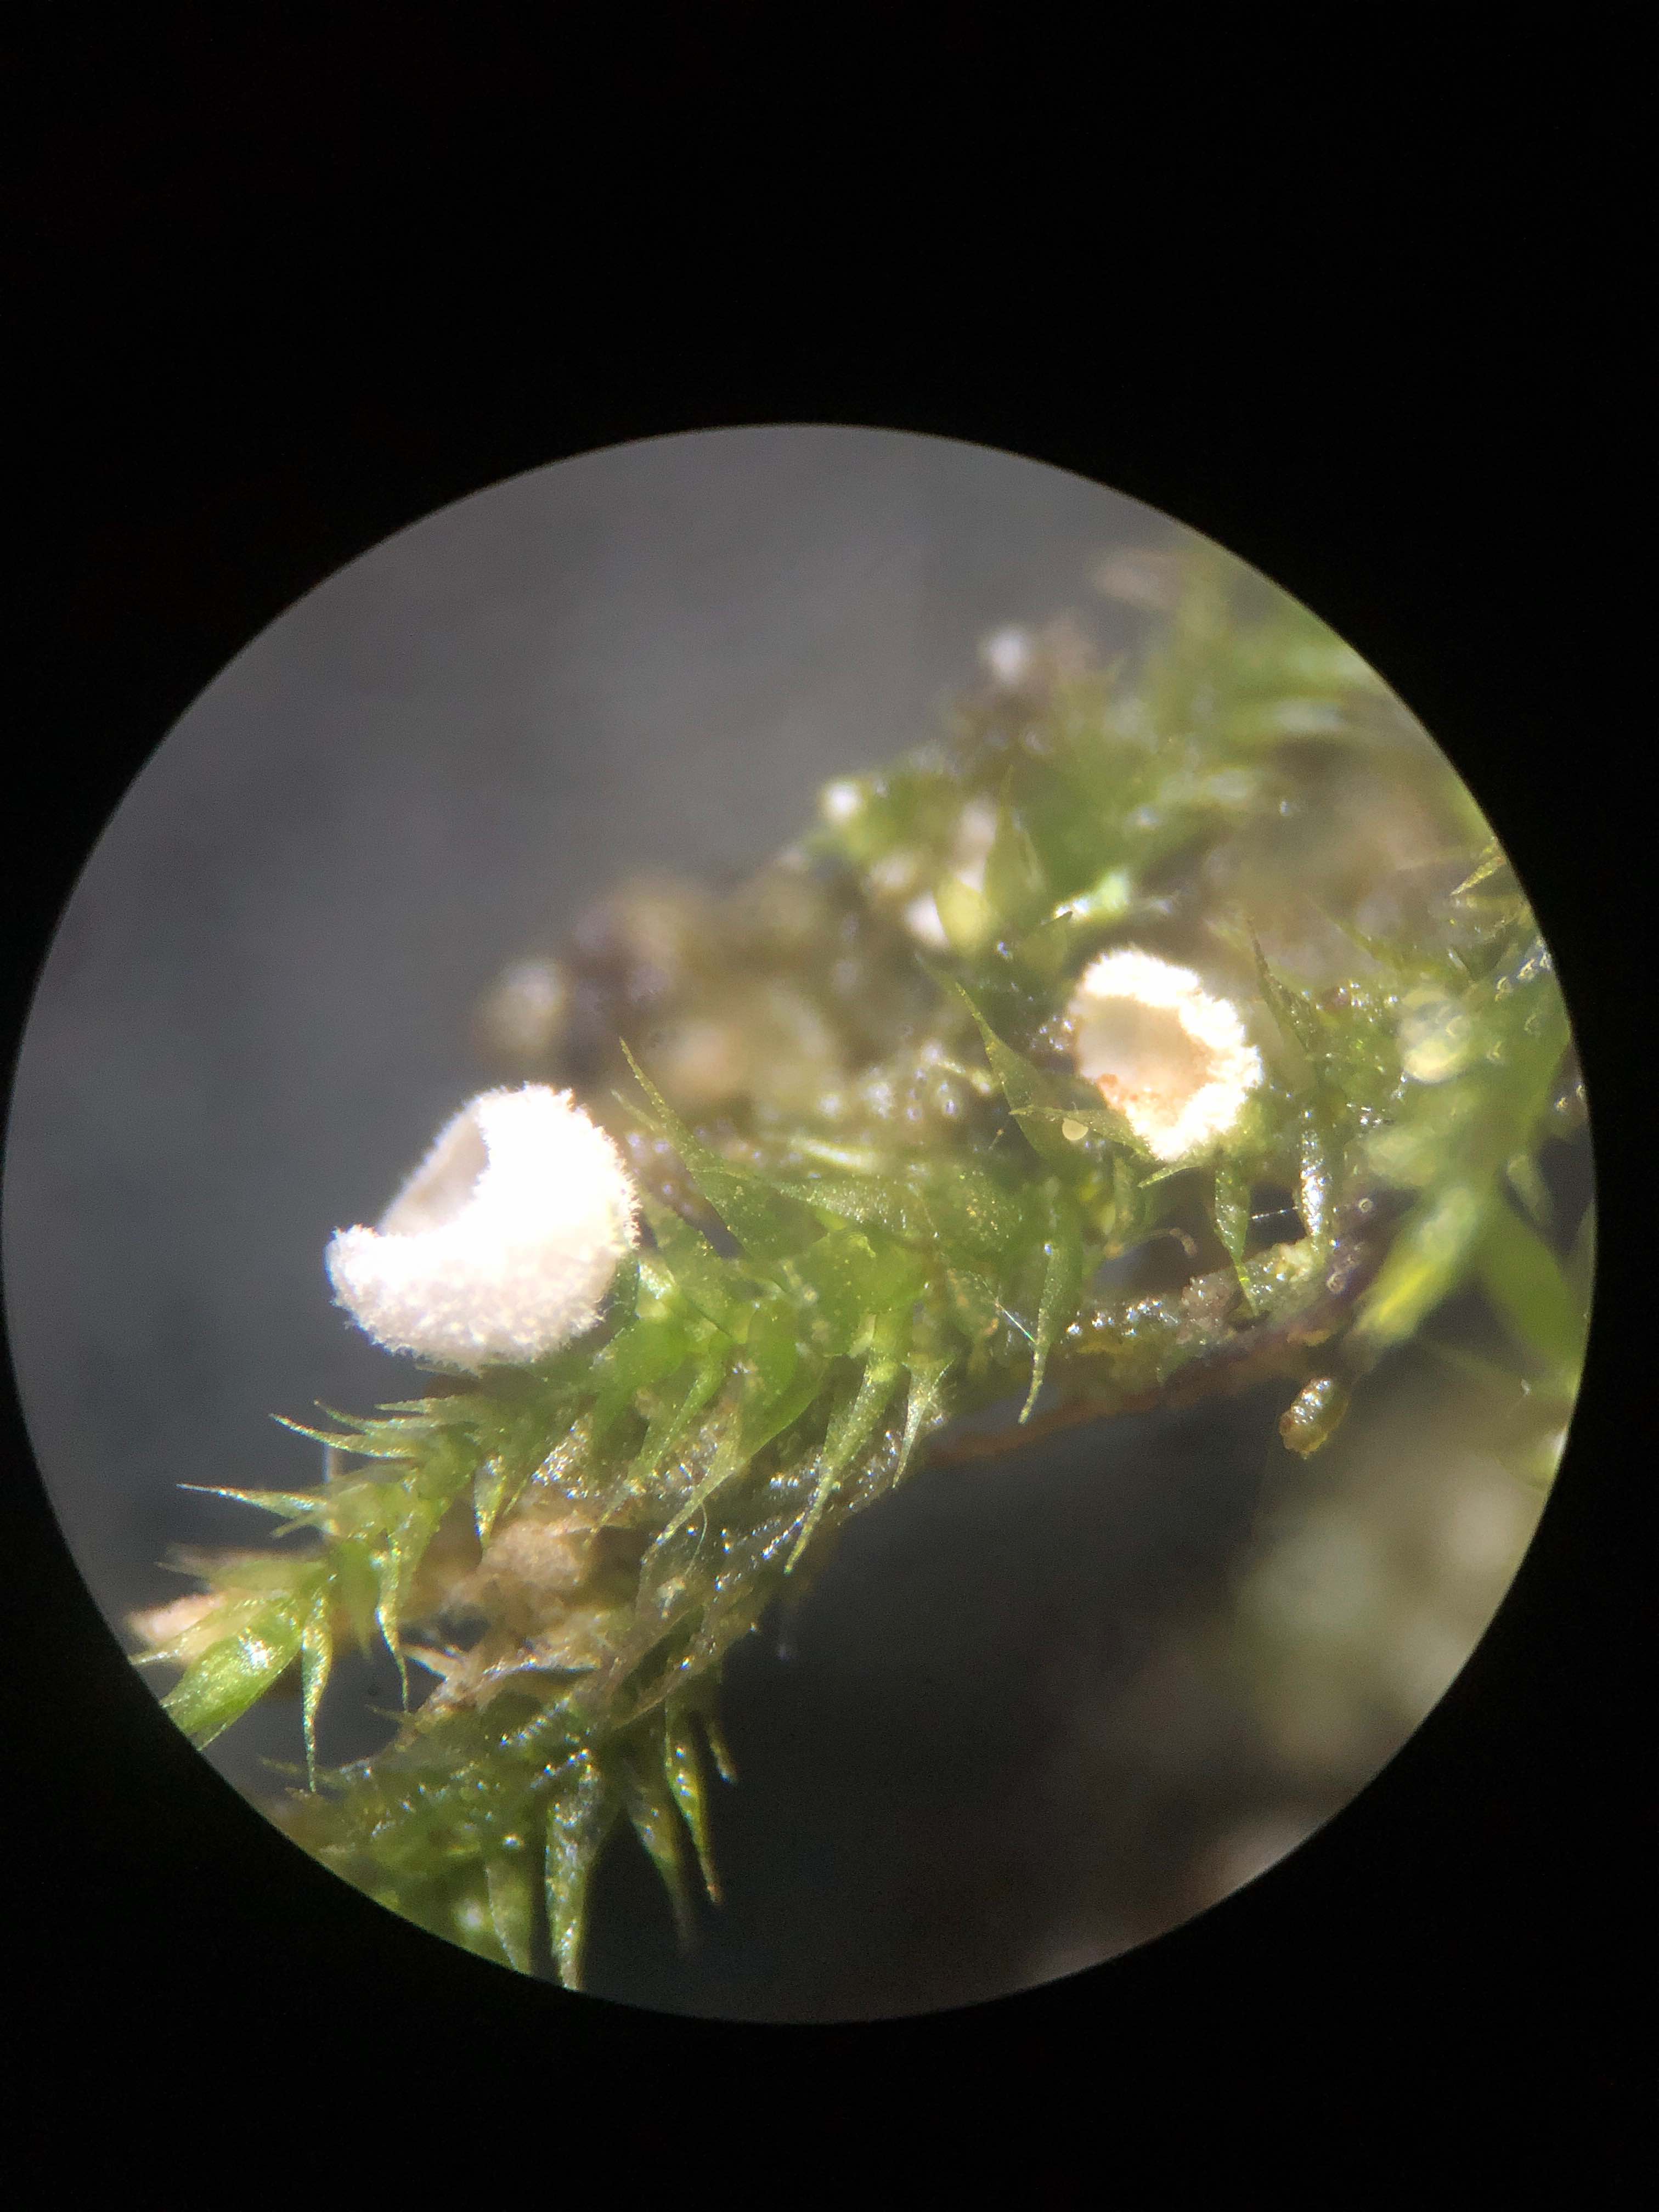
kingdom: Fungi
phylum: Basidiomycota
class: Agaricomycetes
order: Agaricales
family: Chromocyphellaceae
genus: Chromocyphella
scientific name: Chromocyphella muscicola
